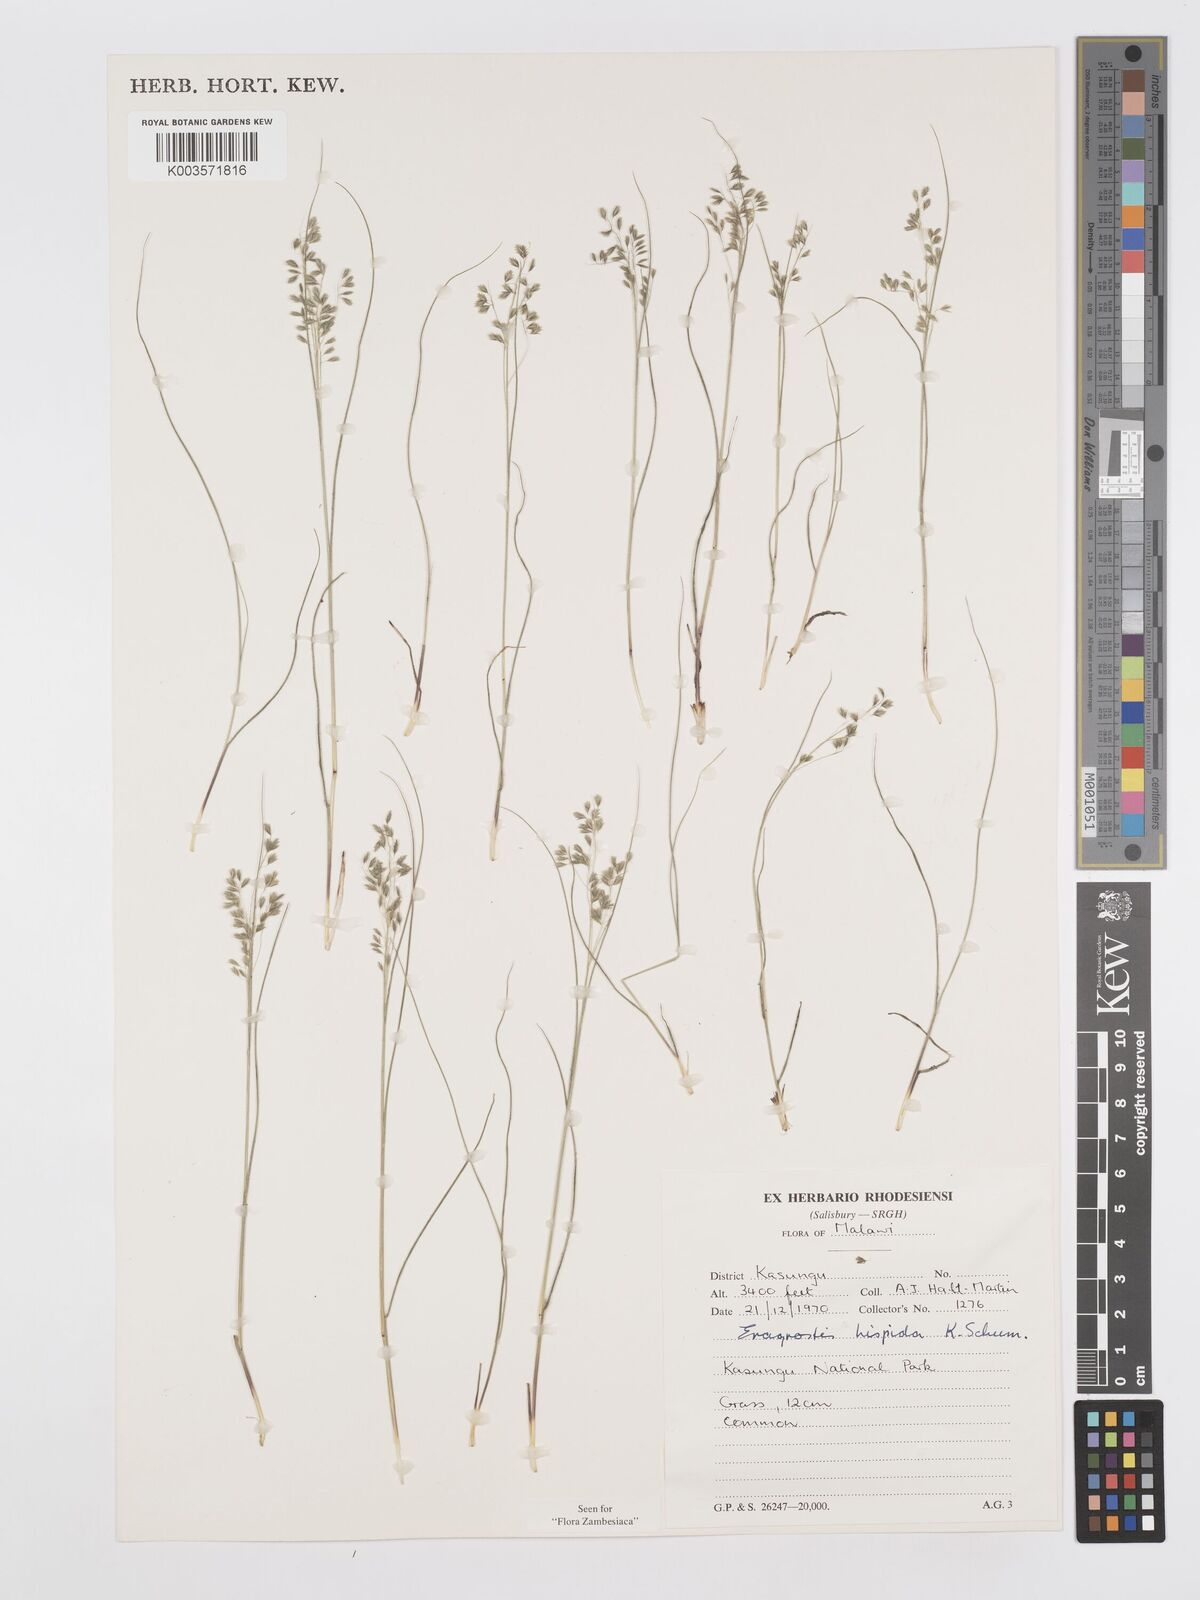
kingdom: Plantae
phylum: Tracheophyta
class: Liliopsida
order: Poales
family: Poaceae
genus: Eragrostis
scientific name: Eragrostis hispida
